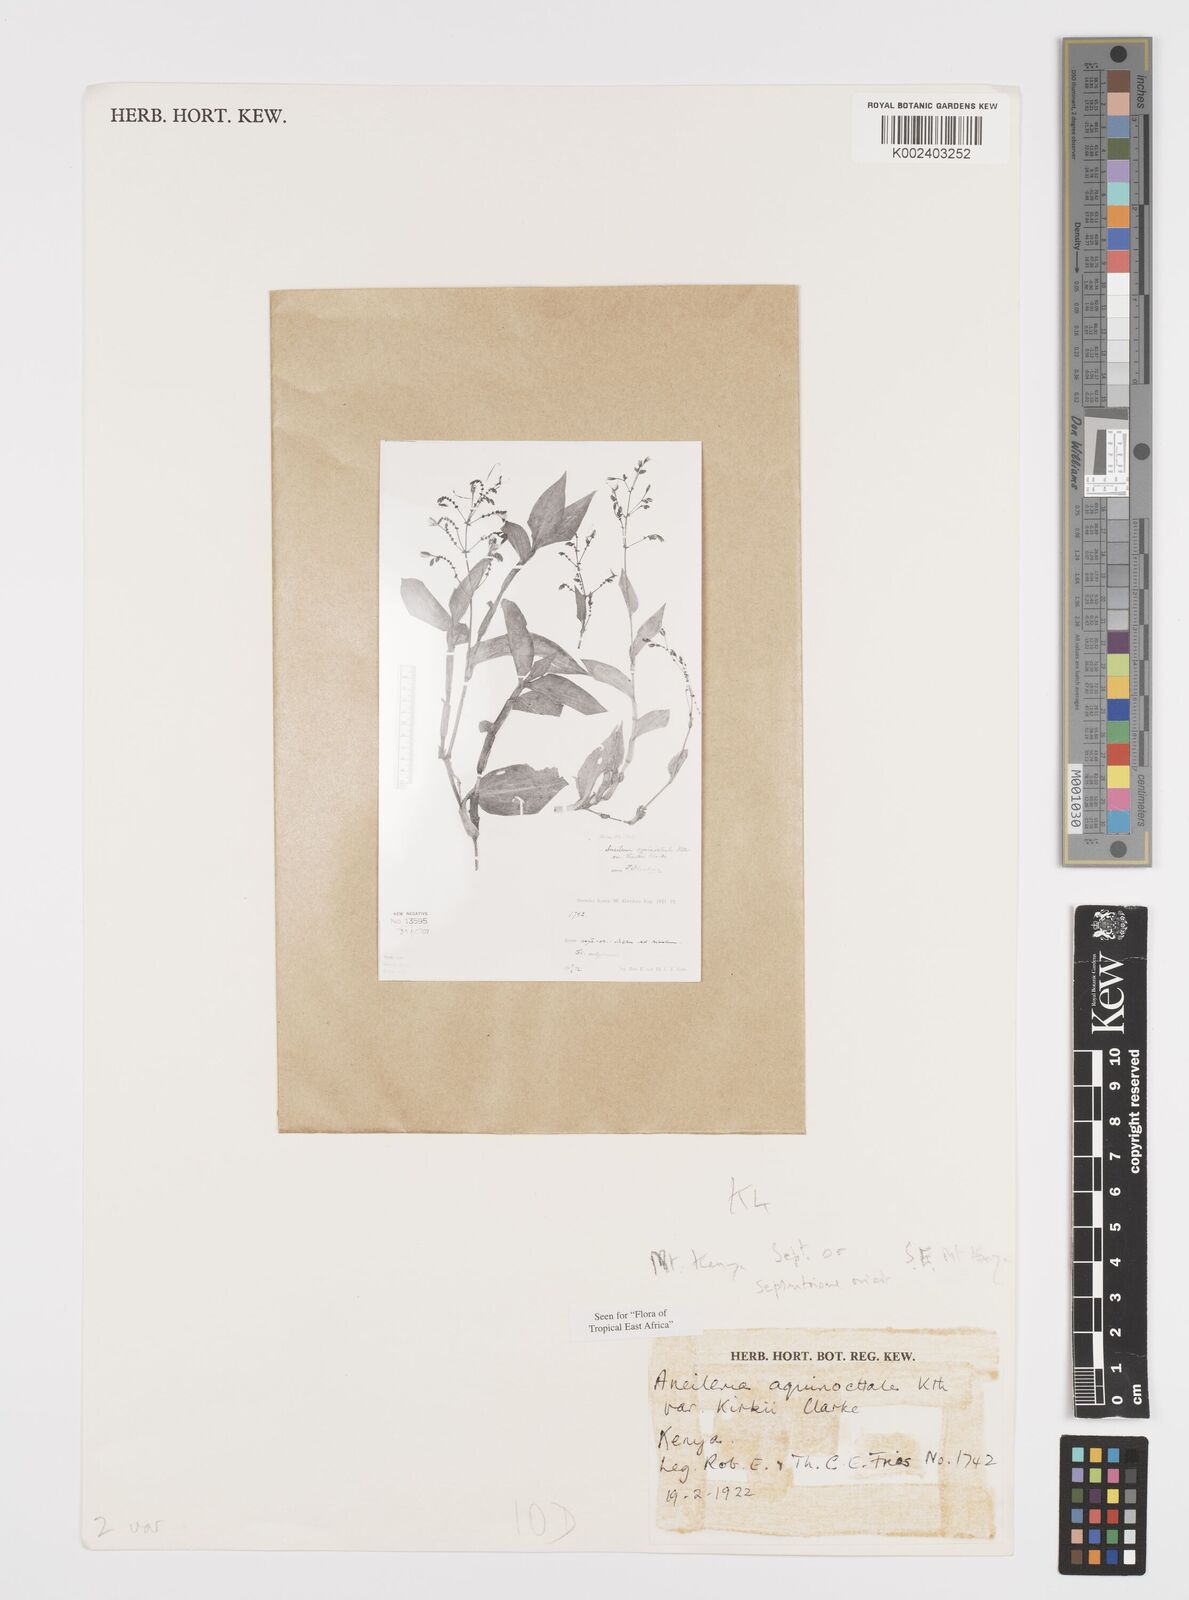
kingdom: Plantae
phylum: Tracheophyta
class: Liliopsida
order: Commelinales
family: Commelinaceae
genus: Aneilema
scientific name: Aneilema hockii
